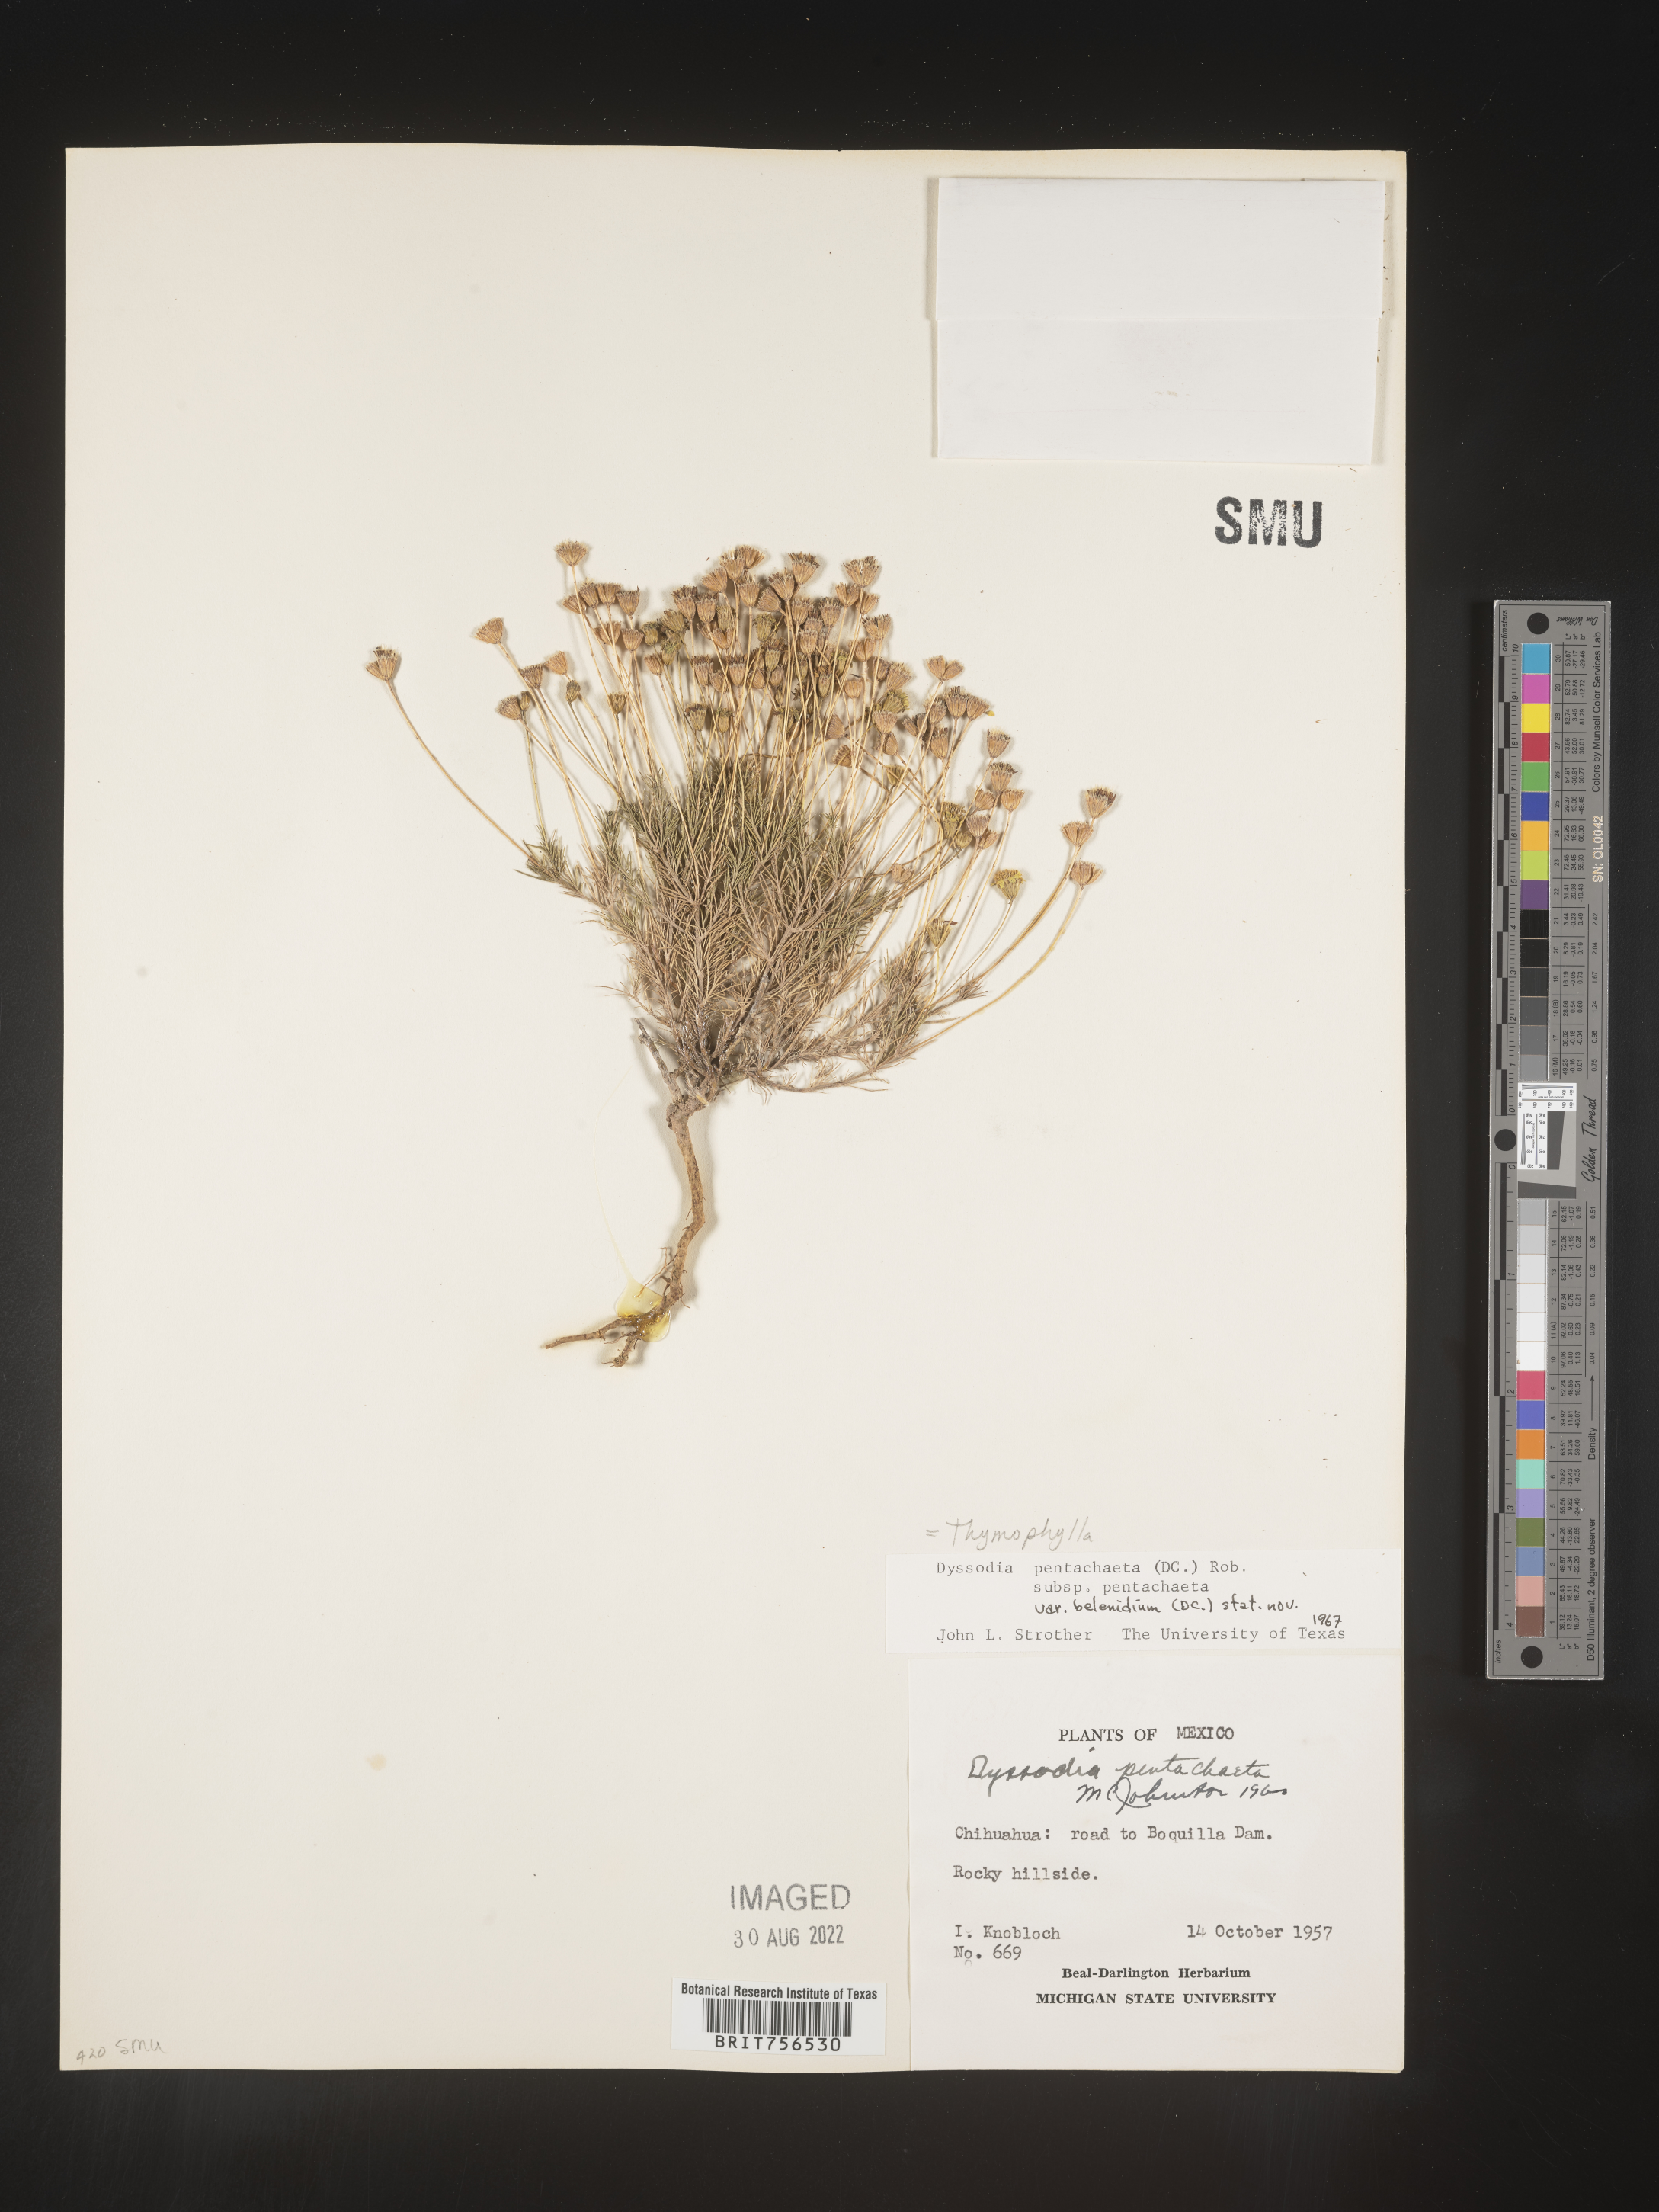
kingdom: Plantae
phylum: Tracheophyta
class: Magnoliopsida
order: Asterales
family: Asteraceae
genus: Thymophylla
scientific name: Thymophylla pentachaeta
